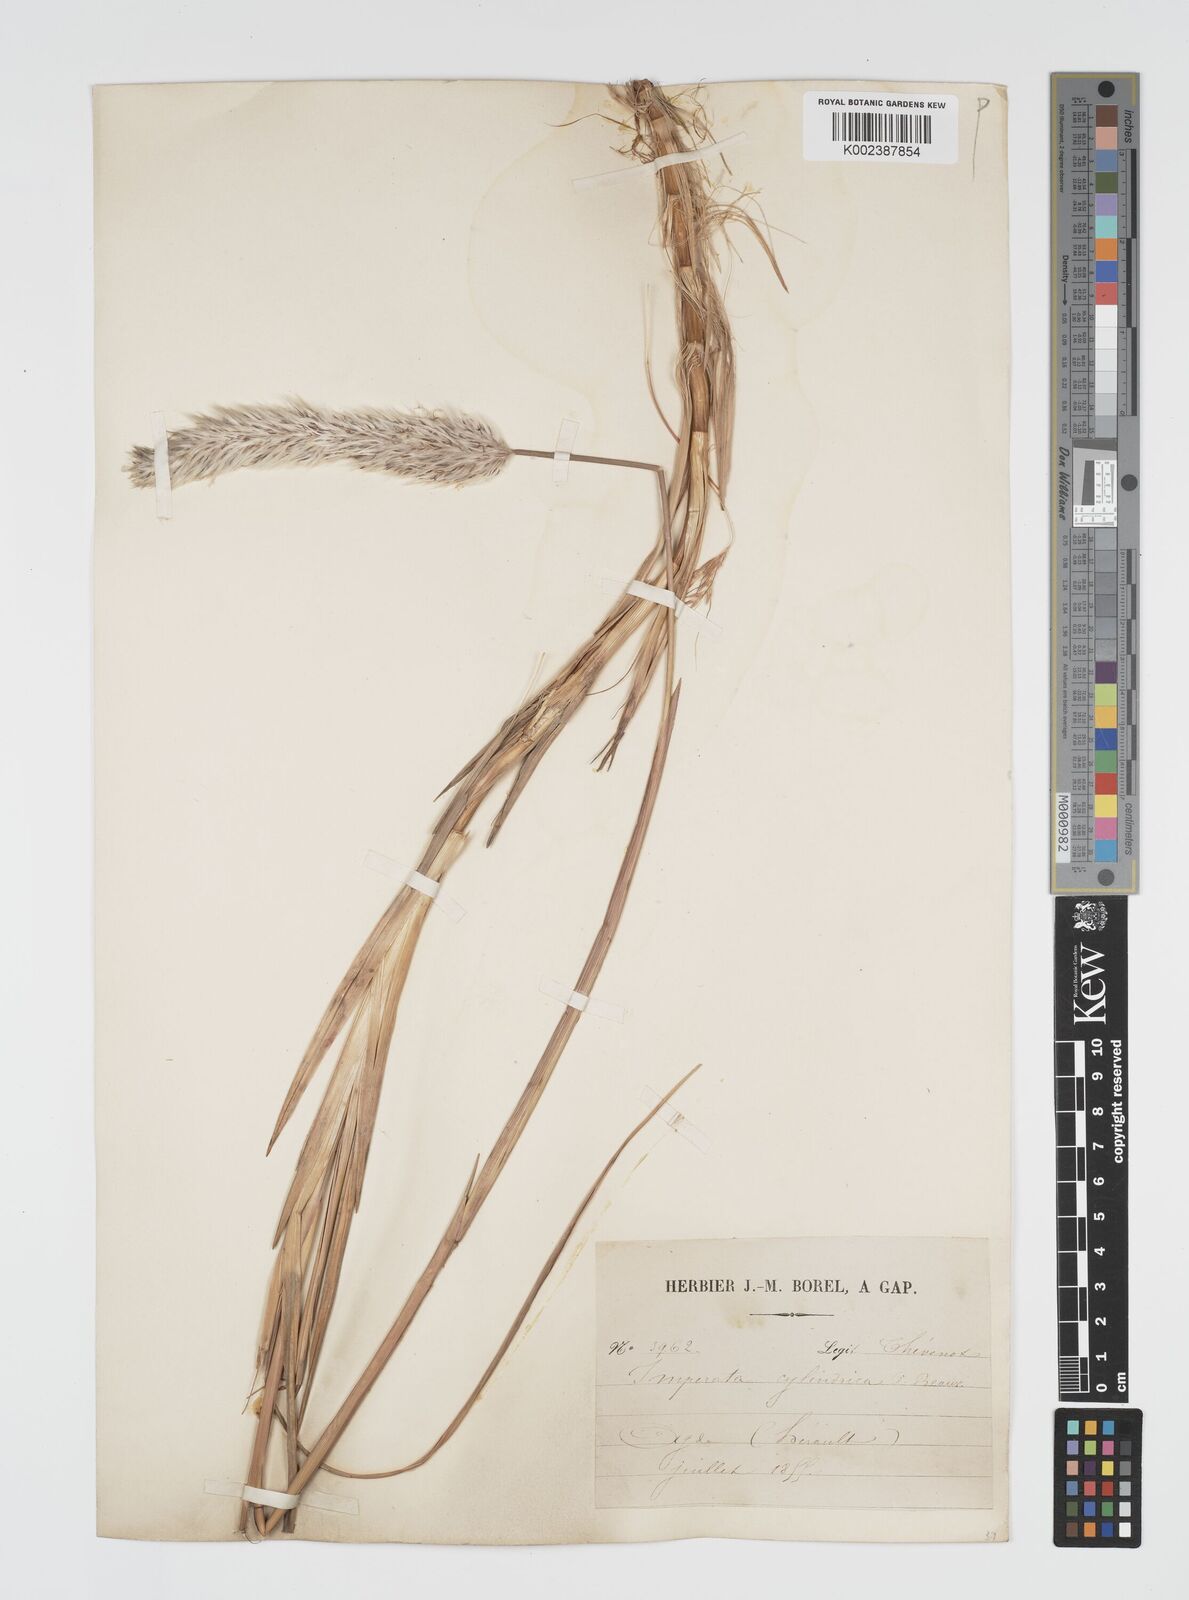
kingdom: Plantae
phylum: Tracheophyta
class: Liliopsida
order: Poales
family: Poaceae
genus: Imperata
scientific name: Imperata cylindrica
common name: Cogongrass
